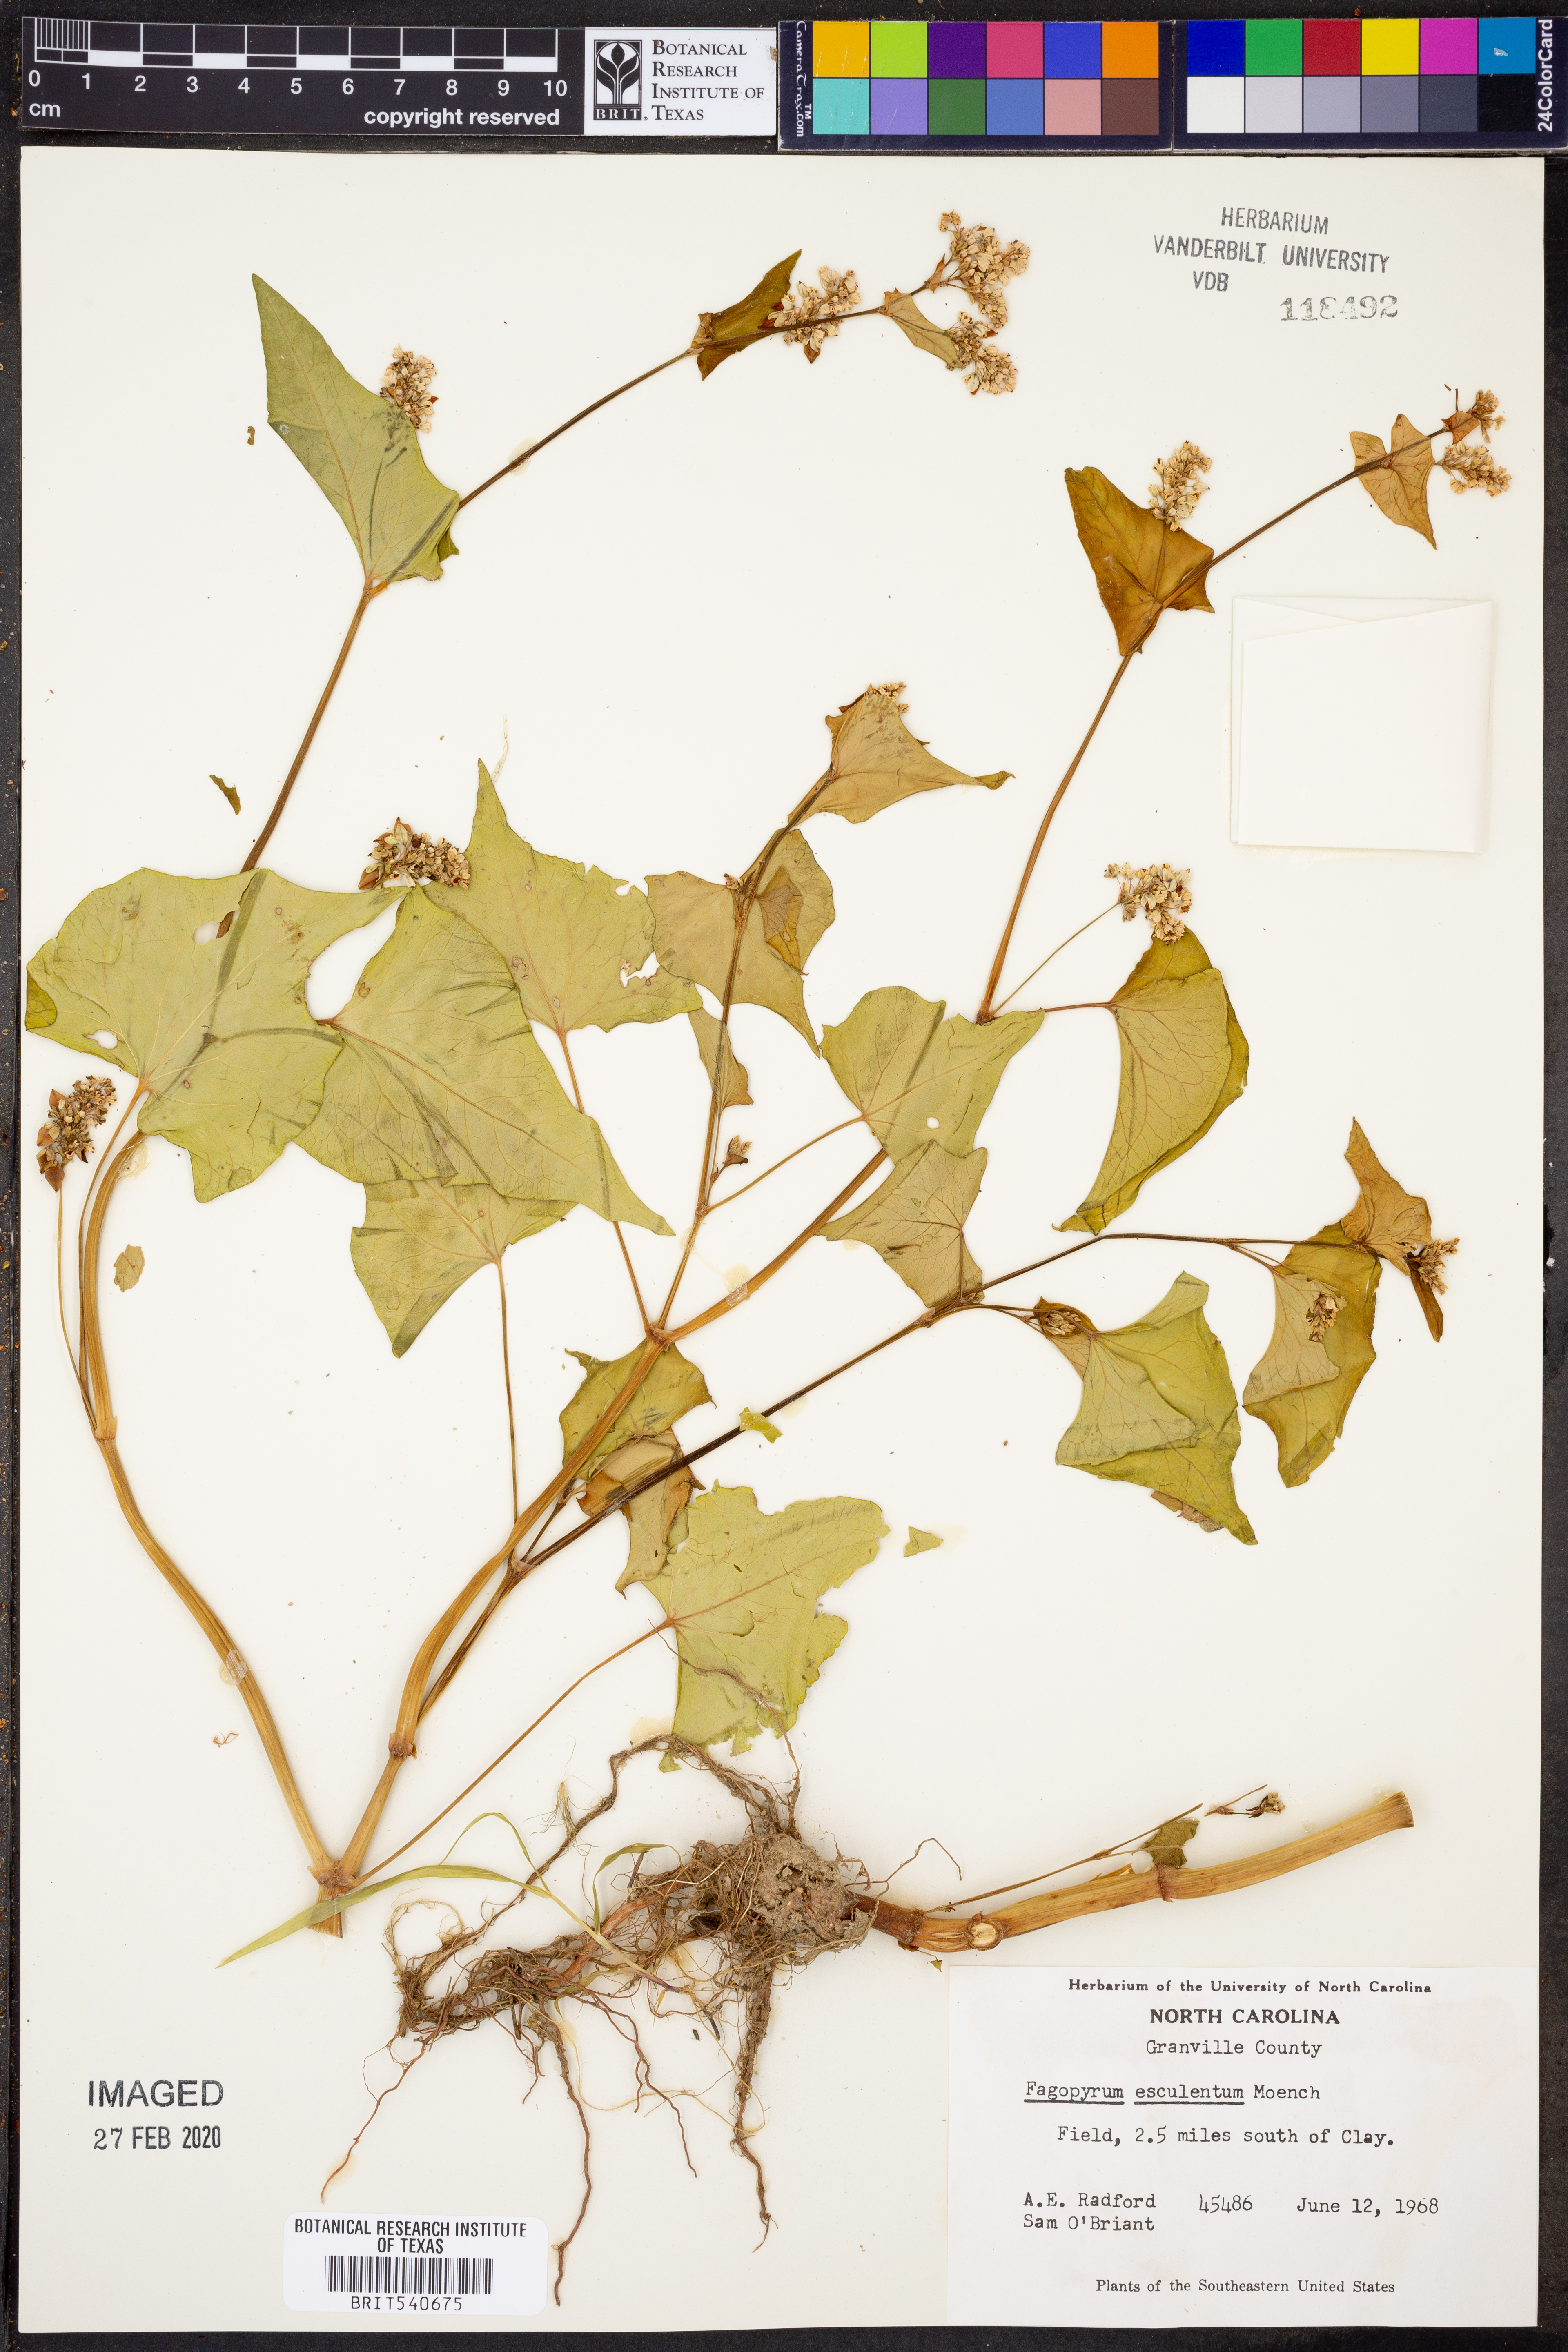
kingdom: Plantae
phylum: Tracheophyta
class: Magnoliopsida
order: Caryophyllales
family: Polygonaceae
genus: Fagopyrum
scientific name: Fagopyrum esculentum
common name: Buckwheat
